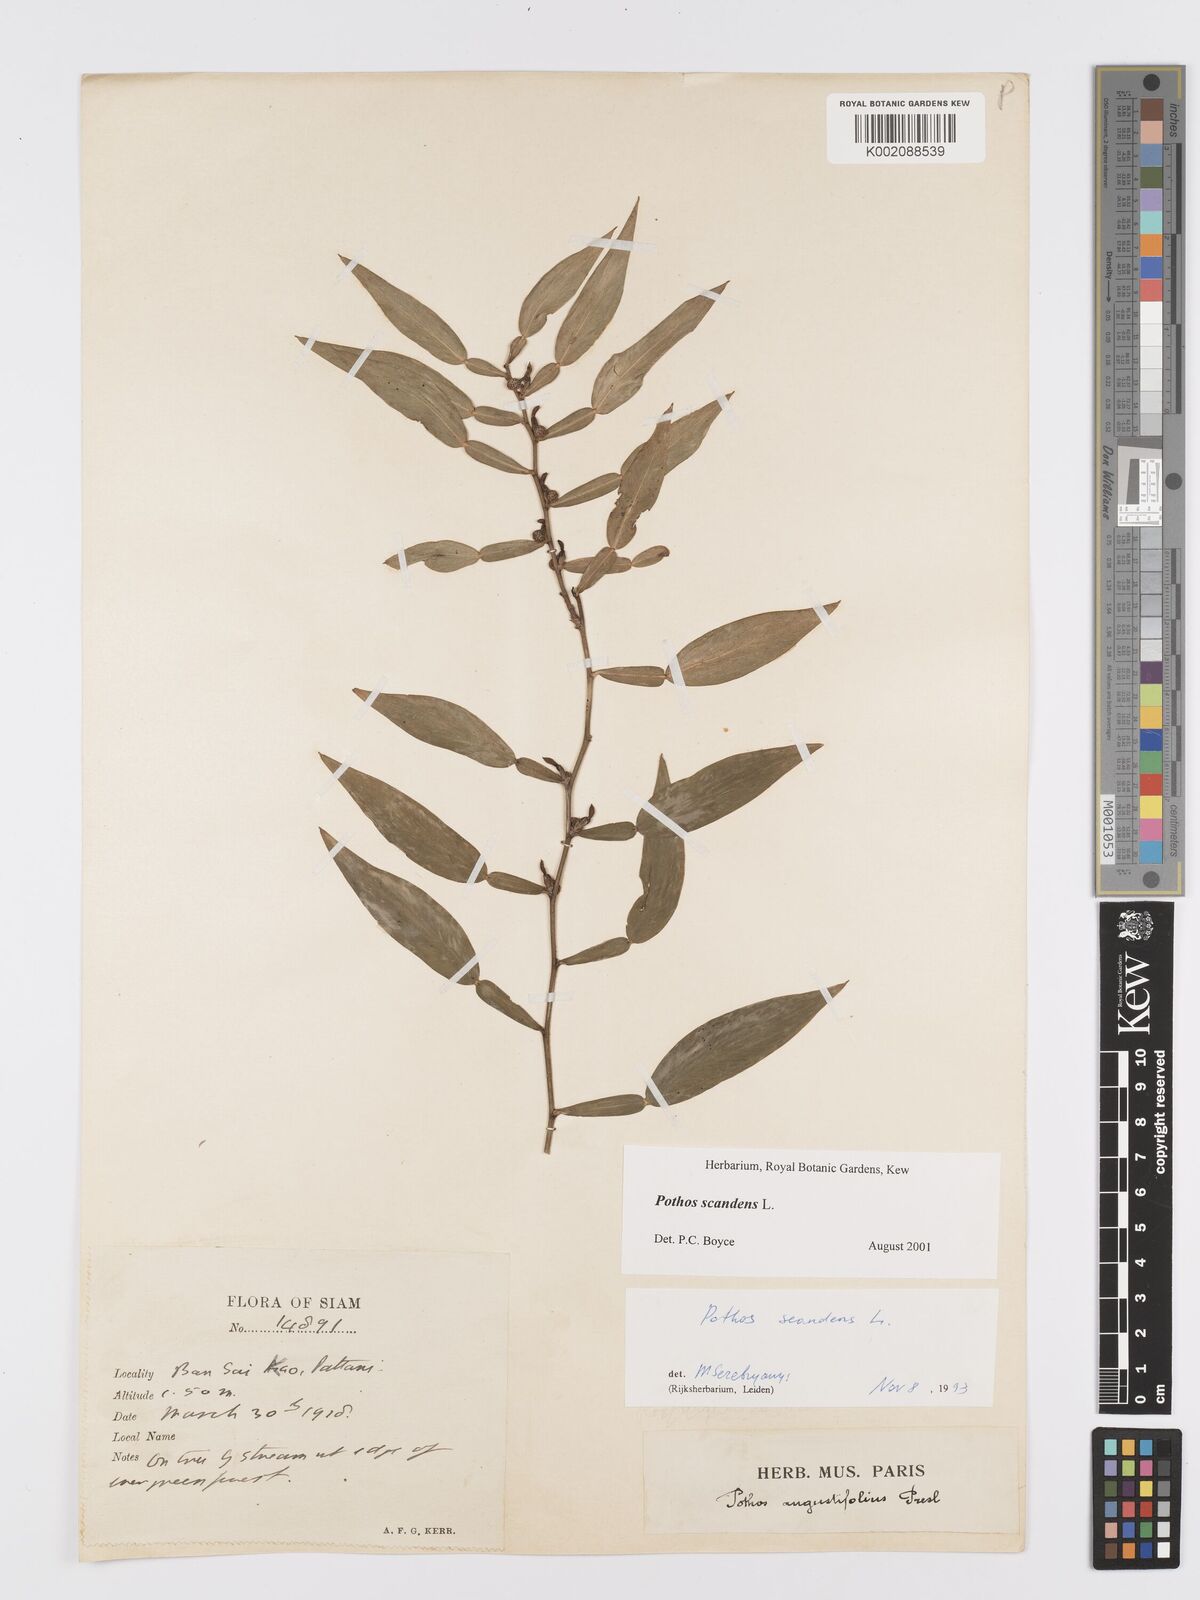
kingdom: Plantae
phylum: Tracheophyta
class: Liliopsida
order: Alismatales
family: Araceae
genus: Pothos
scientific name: Pothos scandens
